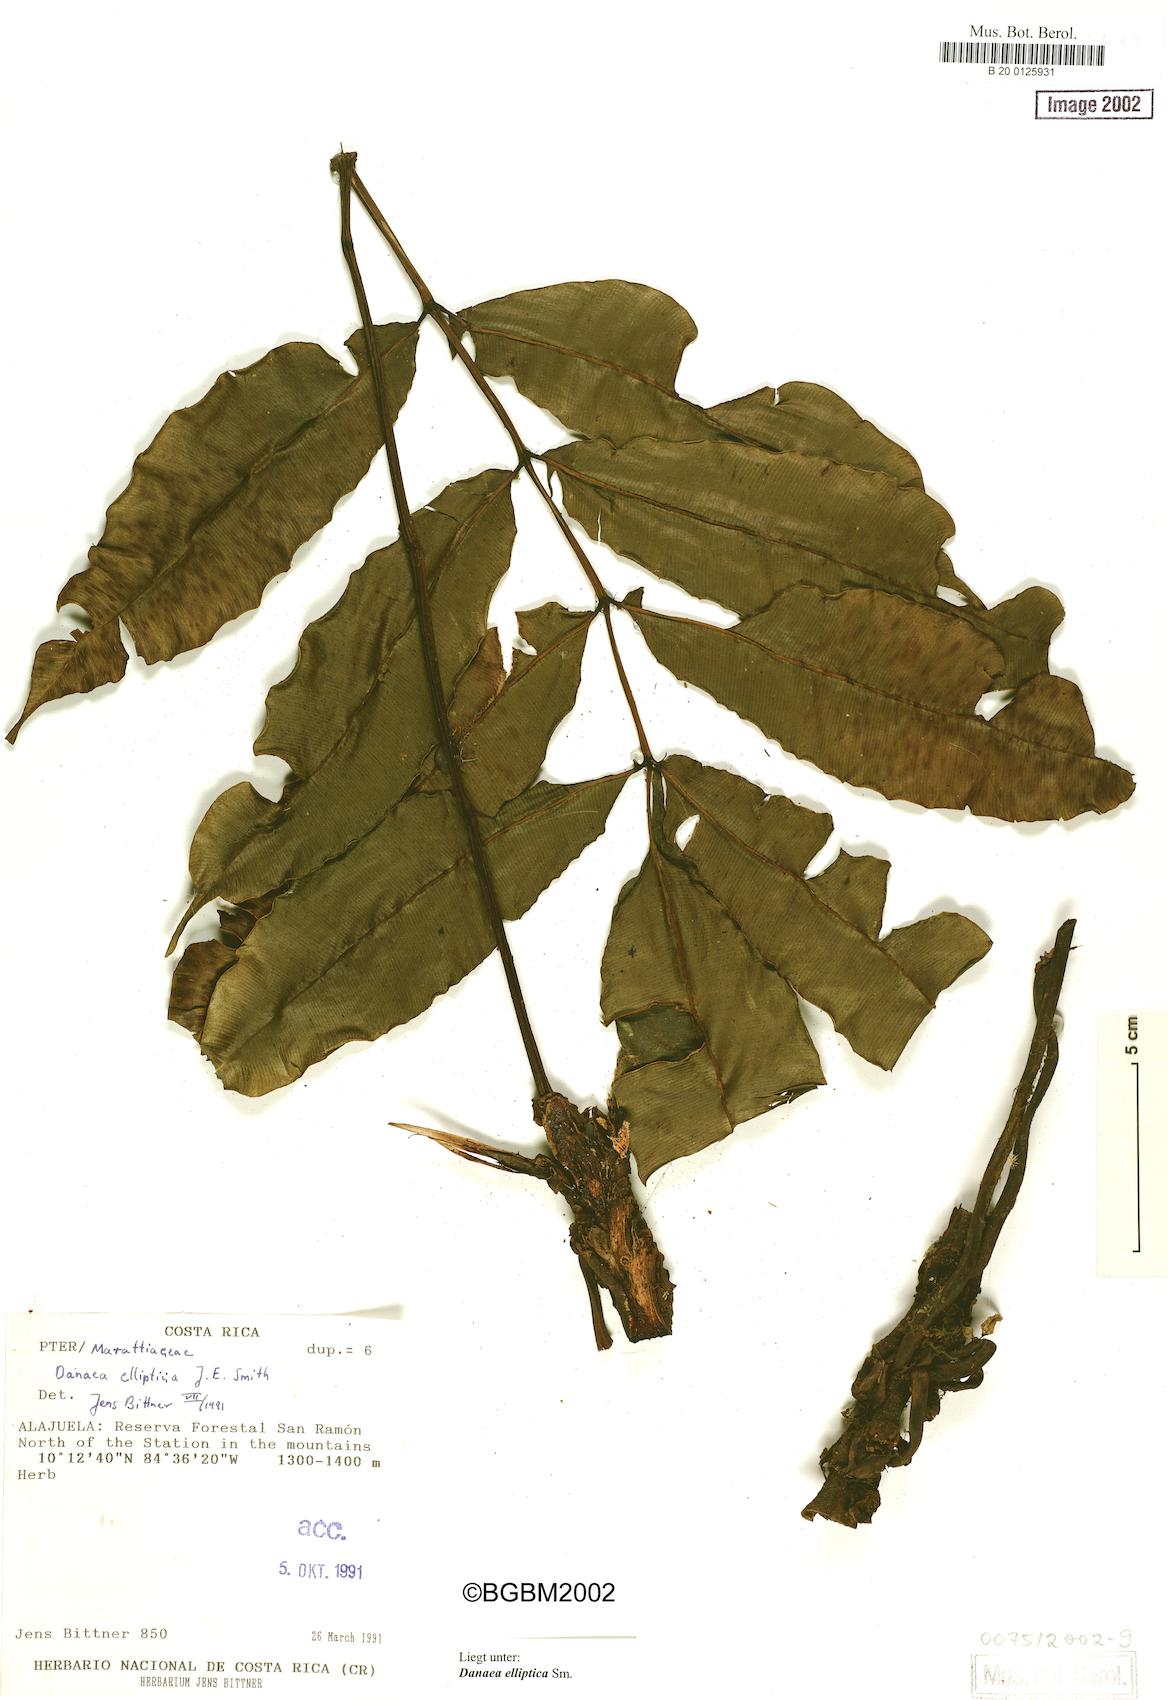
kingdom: Plantae
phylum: Tracheophyta
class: Polypodiopsida
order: Marattiales
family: Marattiaceae
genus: Danaea
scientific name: Danaea nodosa
